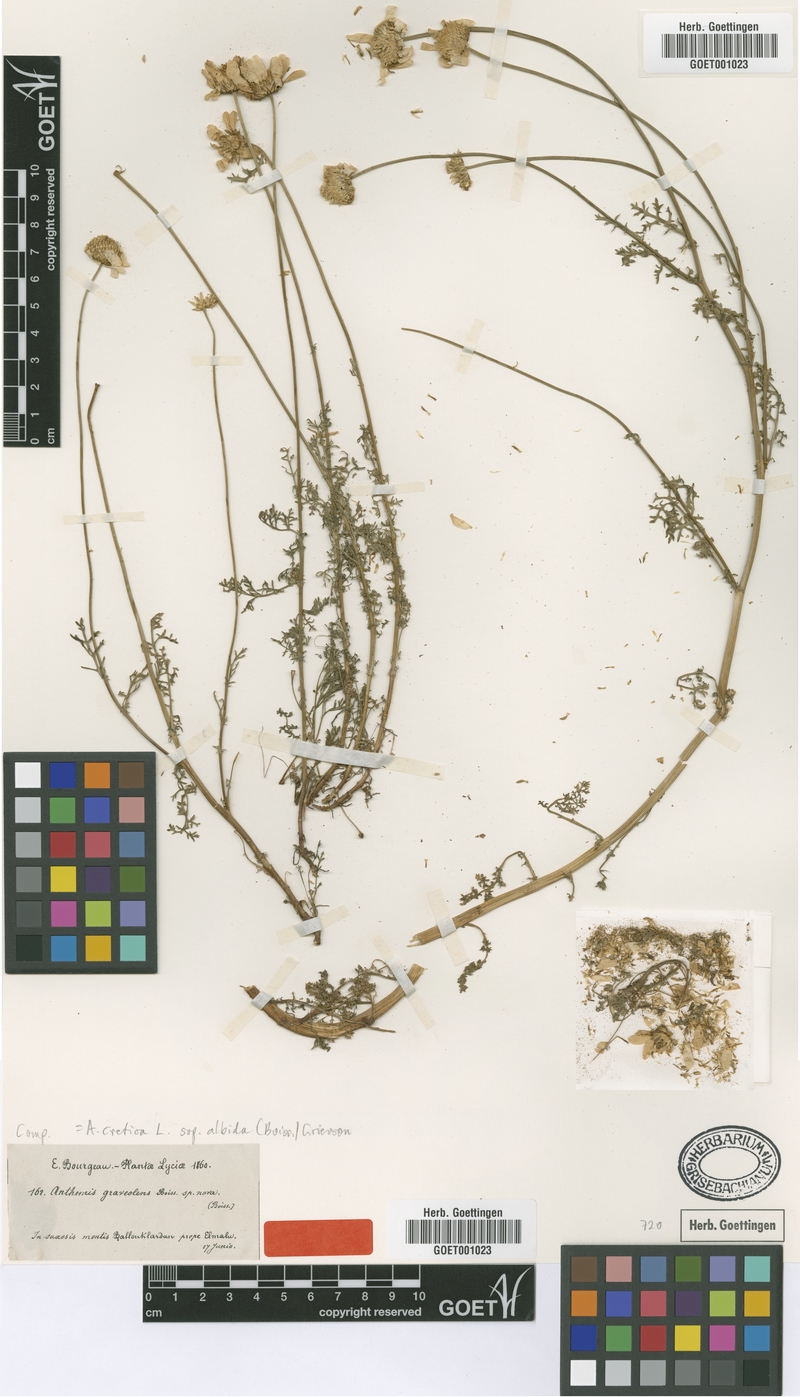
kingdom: Plantae
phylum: Tracheophyta
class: Magnoliopsida
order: Asterales
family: Asteraceae
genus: Anthemis
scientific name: Anthemis cretica
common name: Mountain dog-daisy
